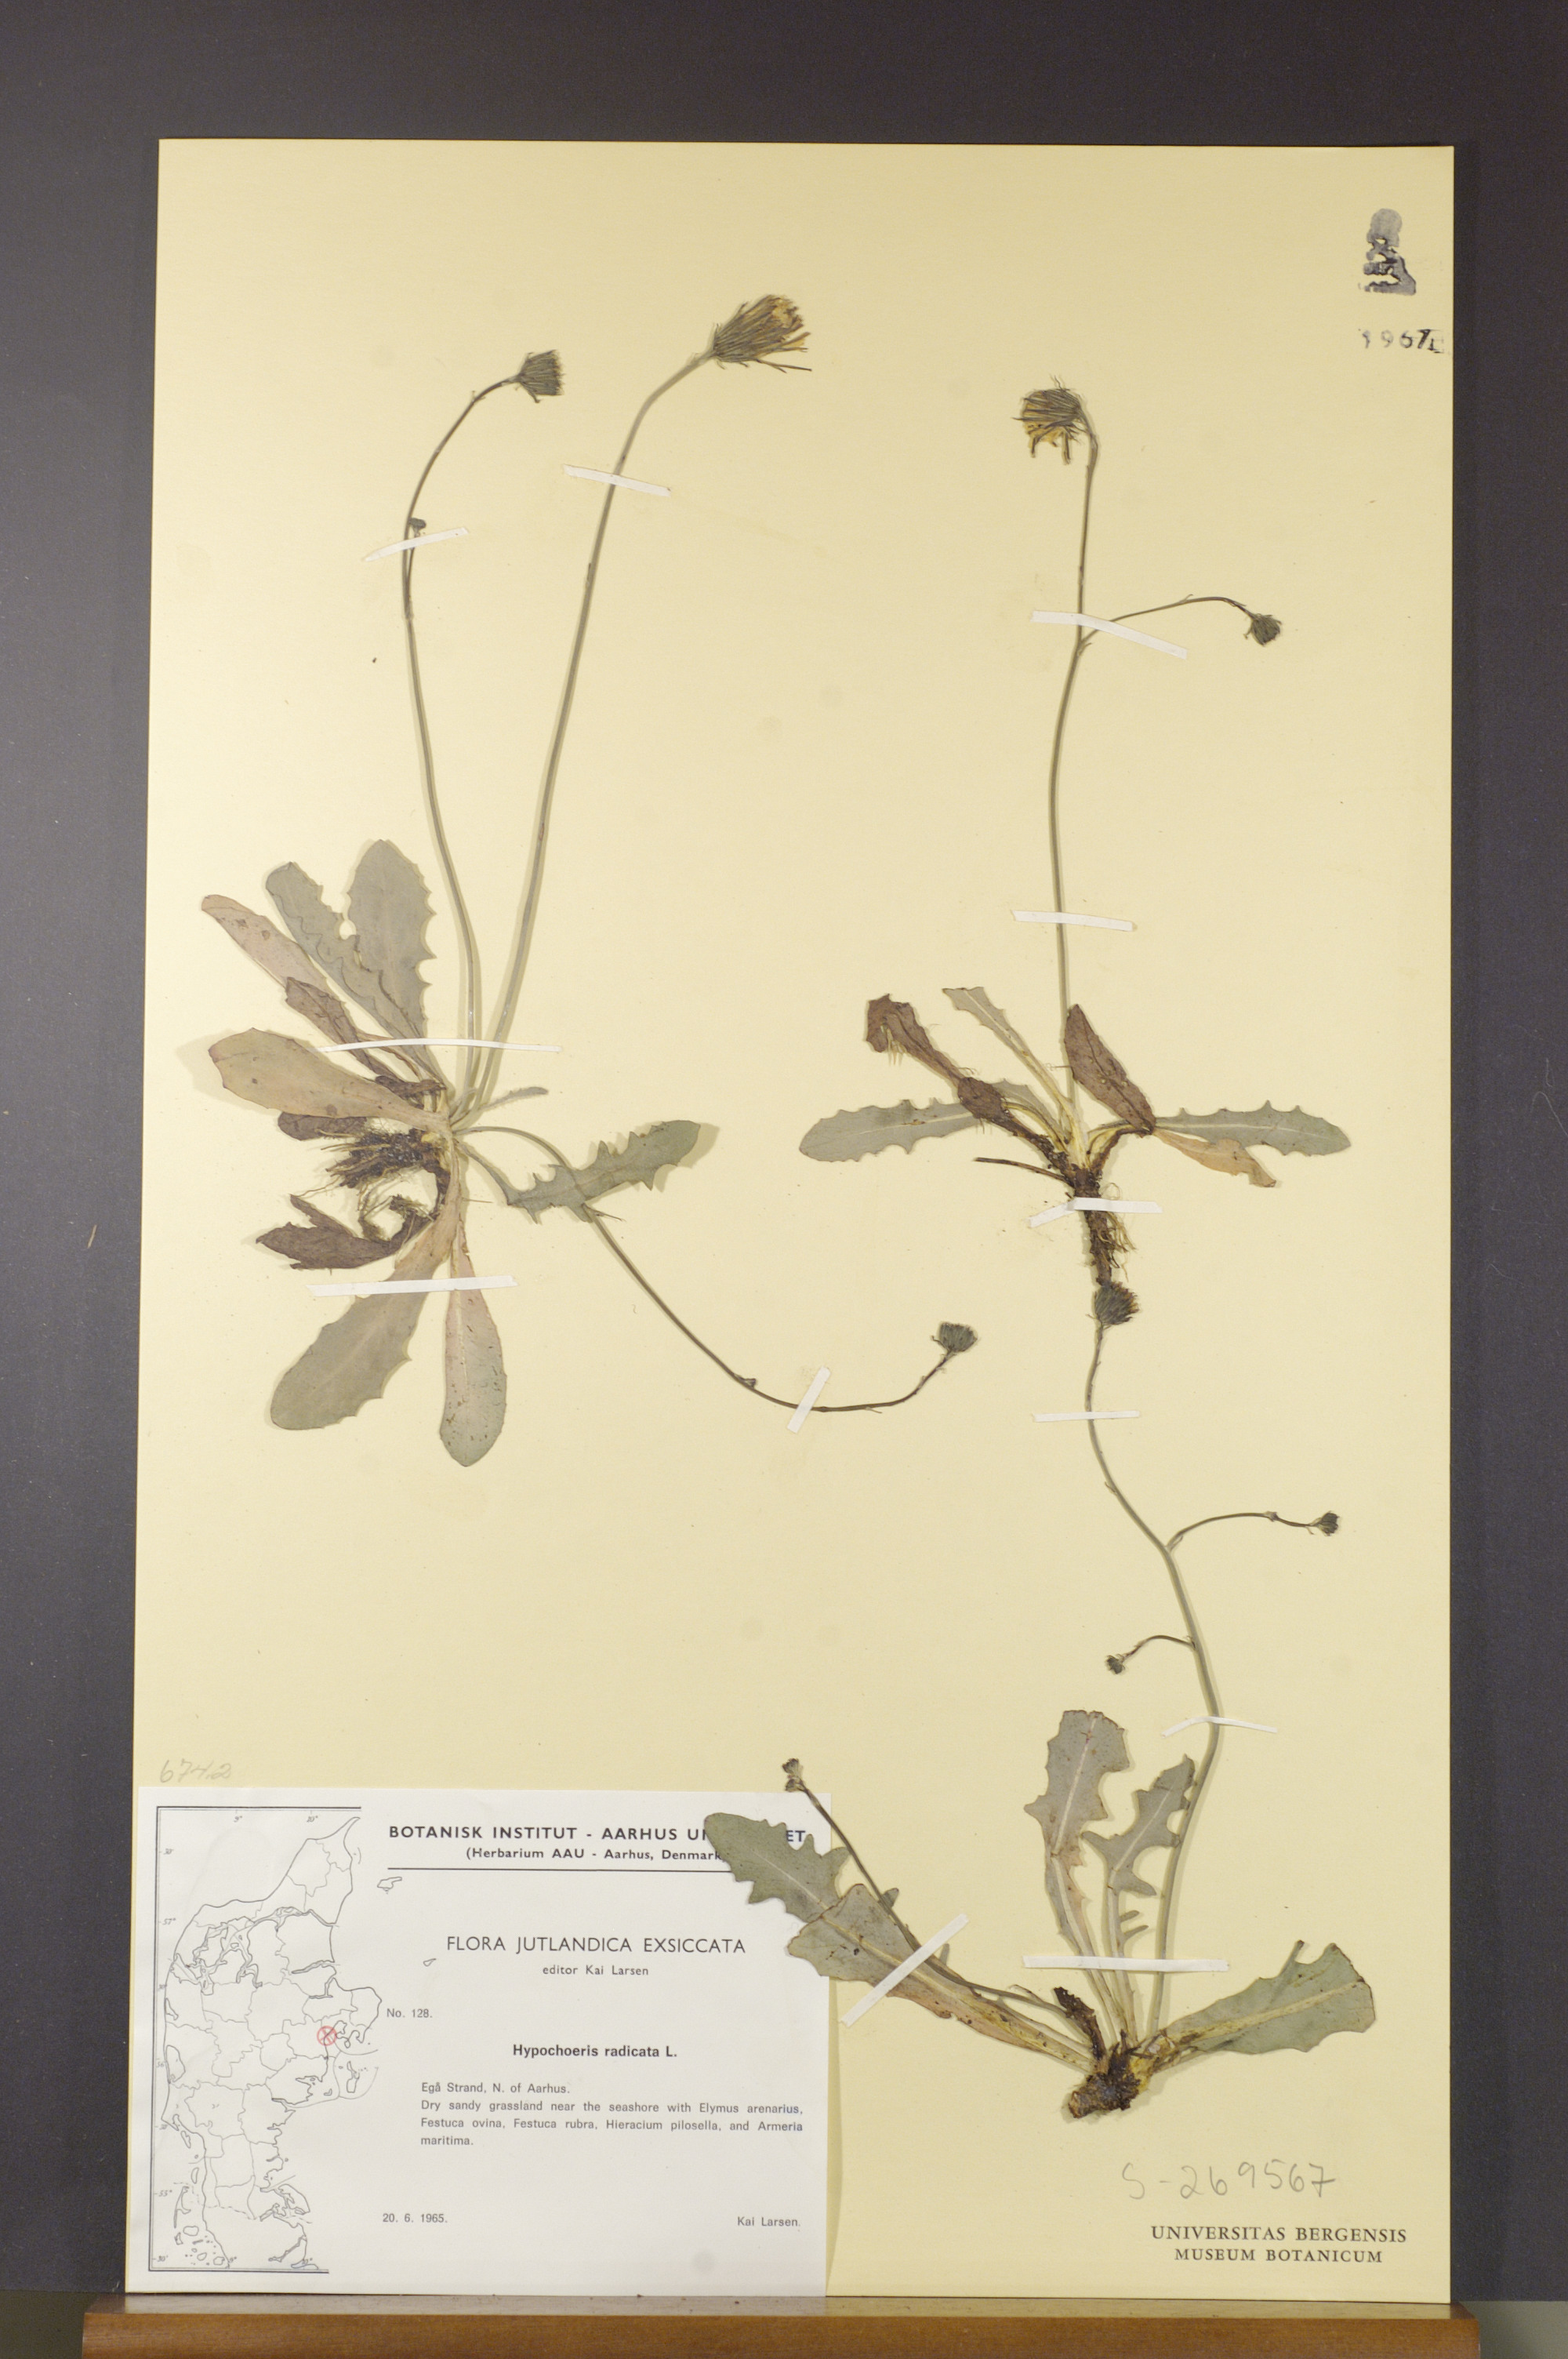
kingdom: Plantae
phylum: Tracheophyta
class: Magnoliopsida
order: Asterales
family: Asteraceae
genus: Hypochaeris
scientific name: Hypochaeris radicata
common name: Flatweed
